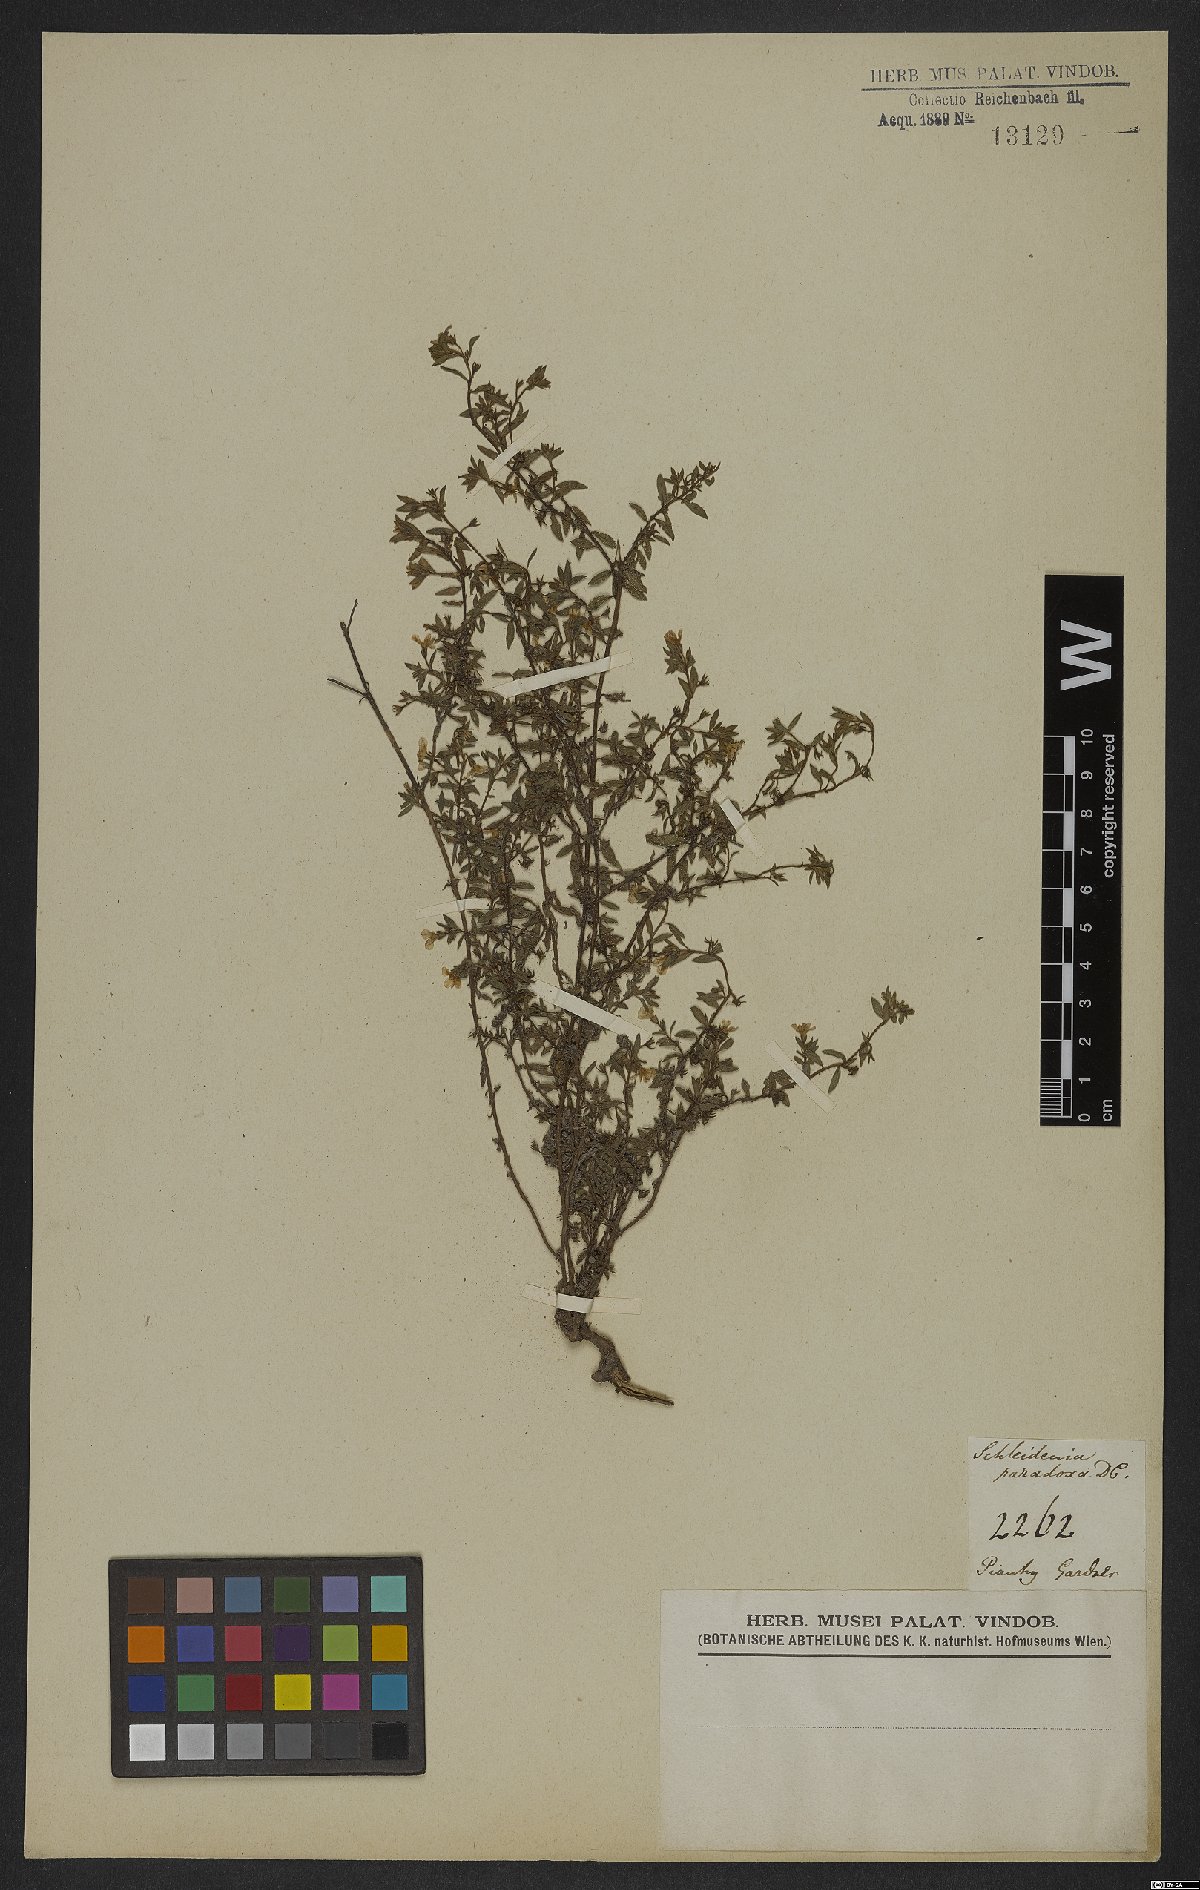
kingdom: Plantae
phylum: Tracheophyta
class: Magnoliopsida
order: Boraginales
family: Heliotropiaceae
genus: Heliotropium
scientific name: Heliotropium macrodon
